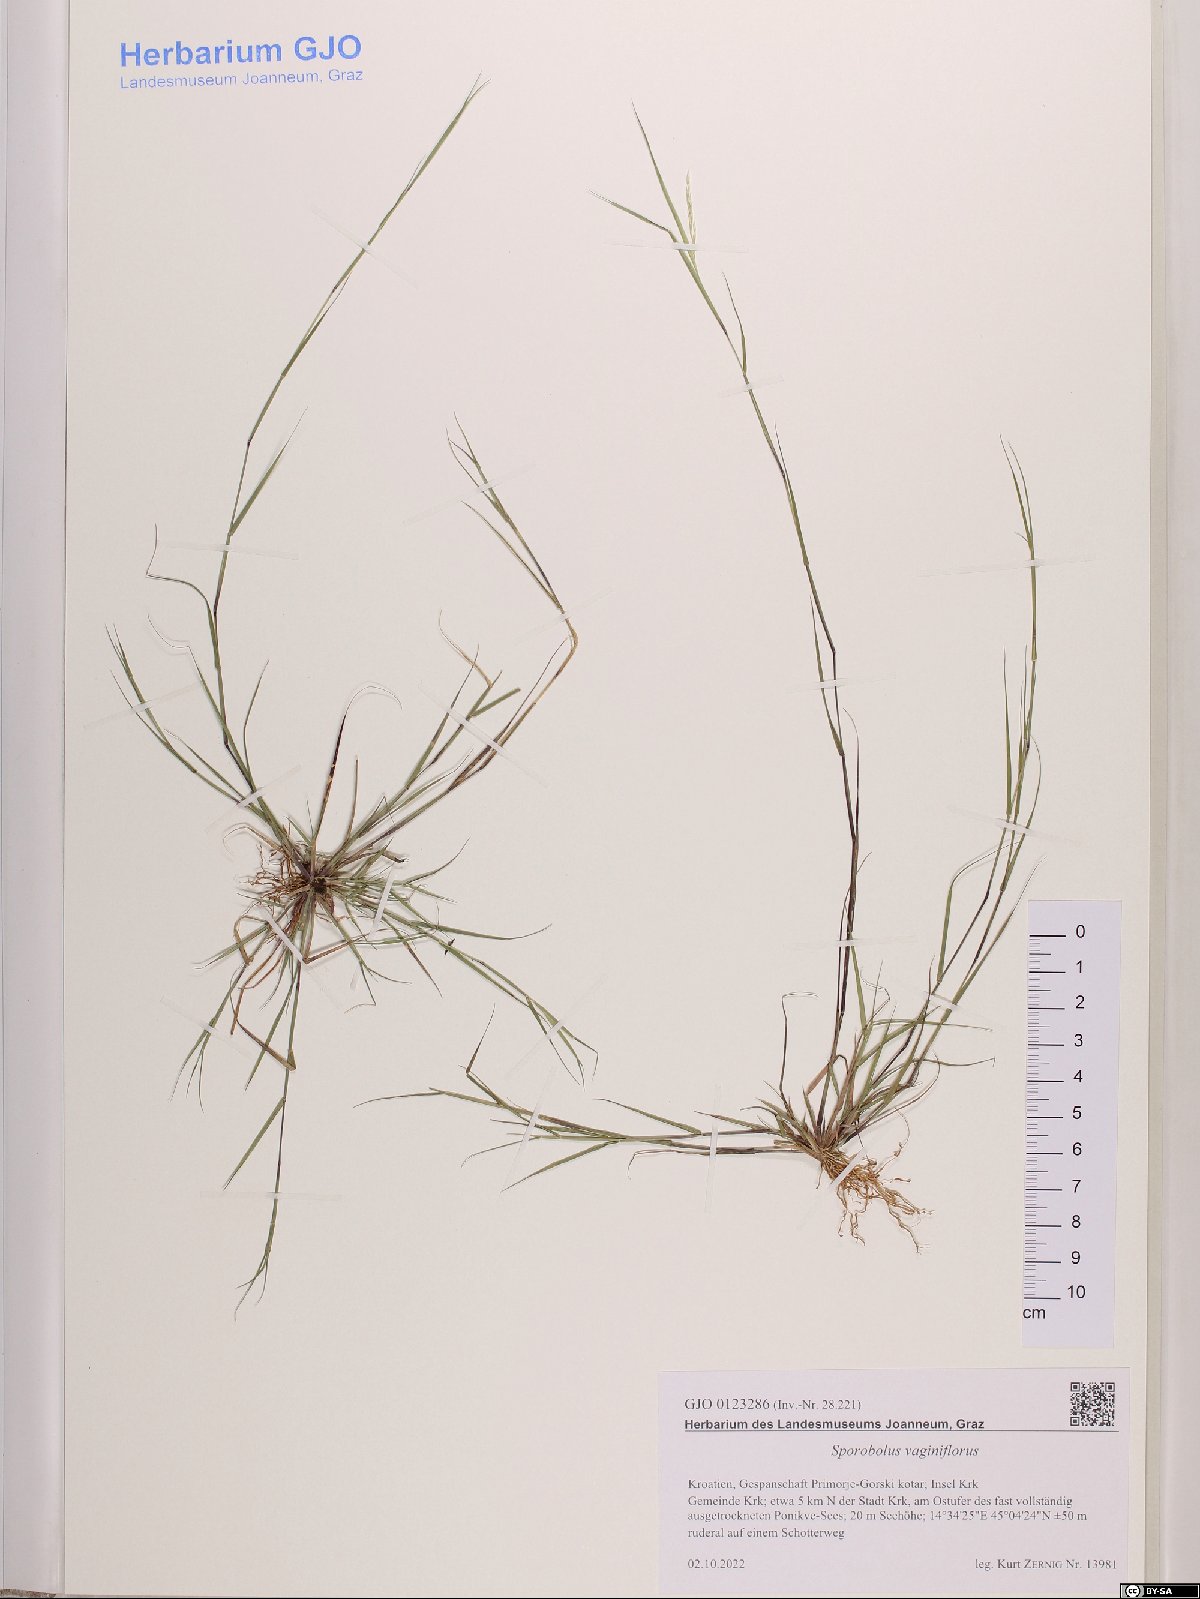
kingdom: Plantae
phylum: Tracheophyta
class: Liliopsida
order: Poales
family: Poaceae
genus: Sporobolus
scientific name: Sporobolus vaginiflorus
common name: Poverty dropseed
